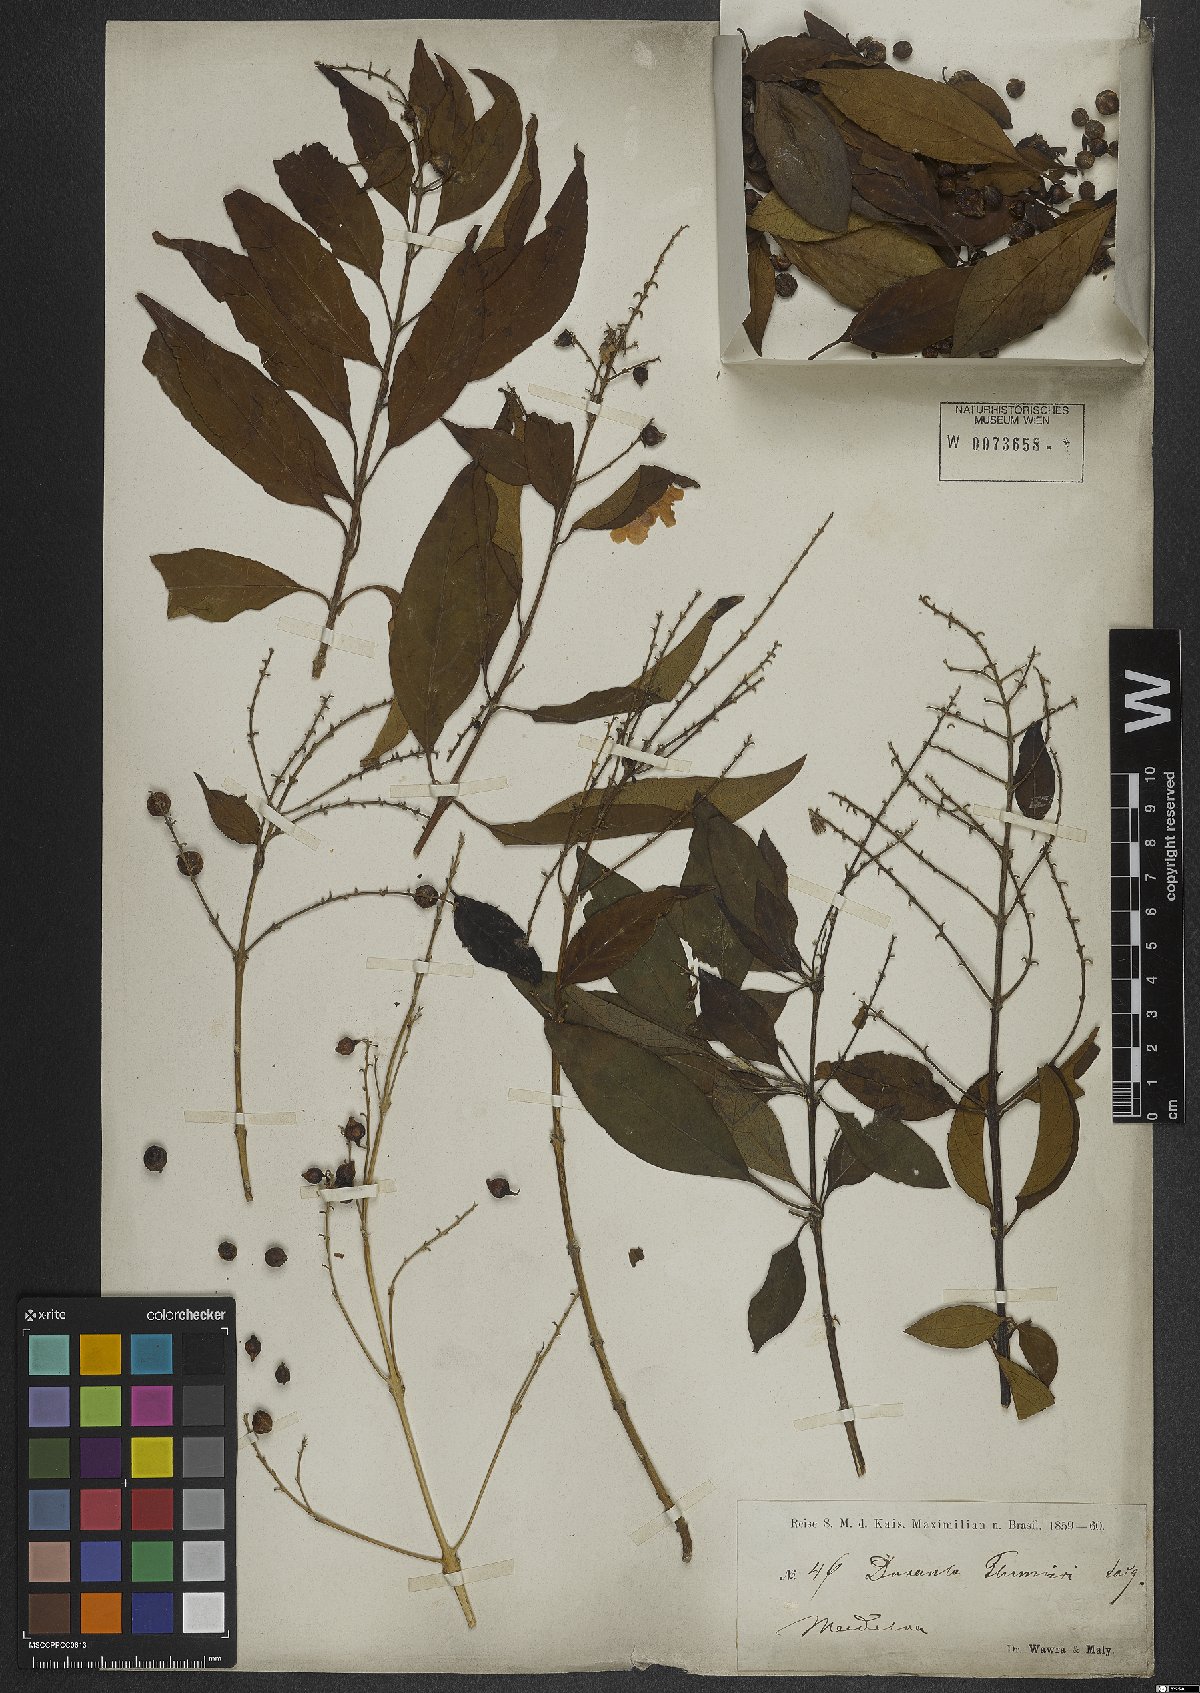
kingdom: Plantae
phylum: Tracheophyta
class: Magnoliopsida
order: Lamiales
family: Verbenaceae
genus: Duranta
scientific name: Duranta erecta
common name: Golden dewdrops
